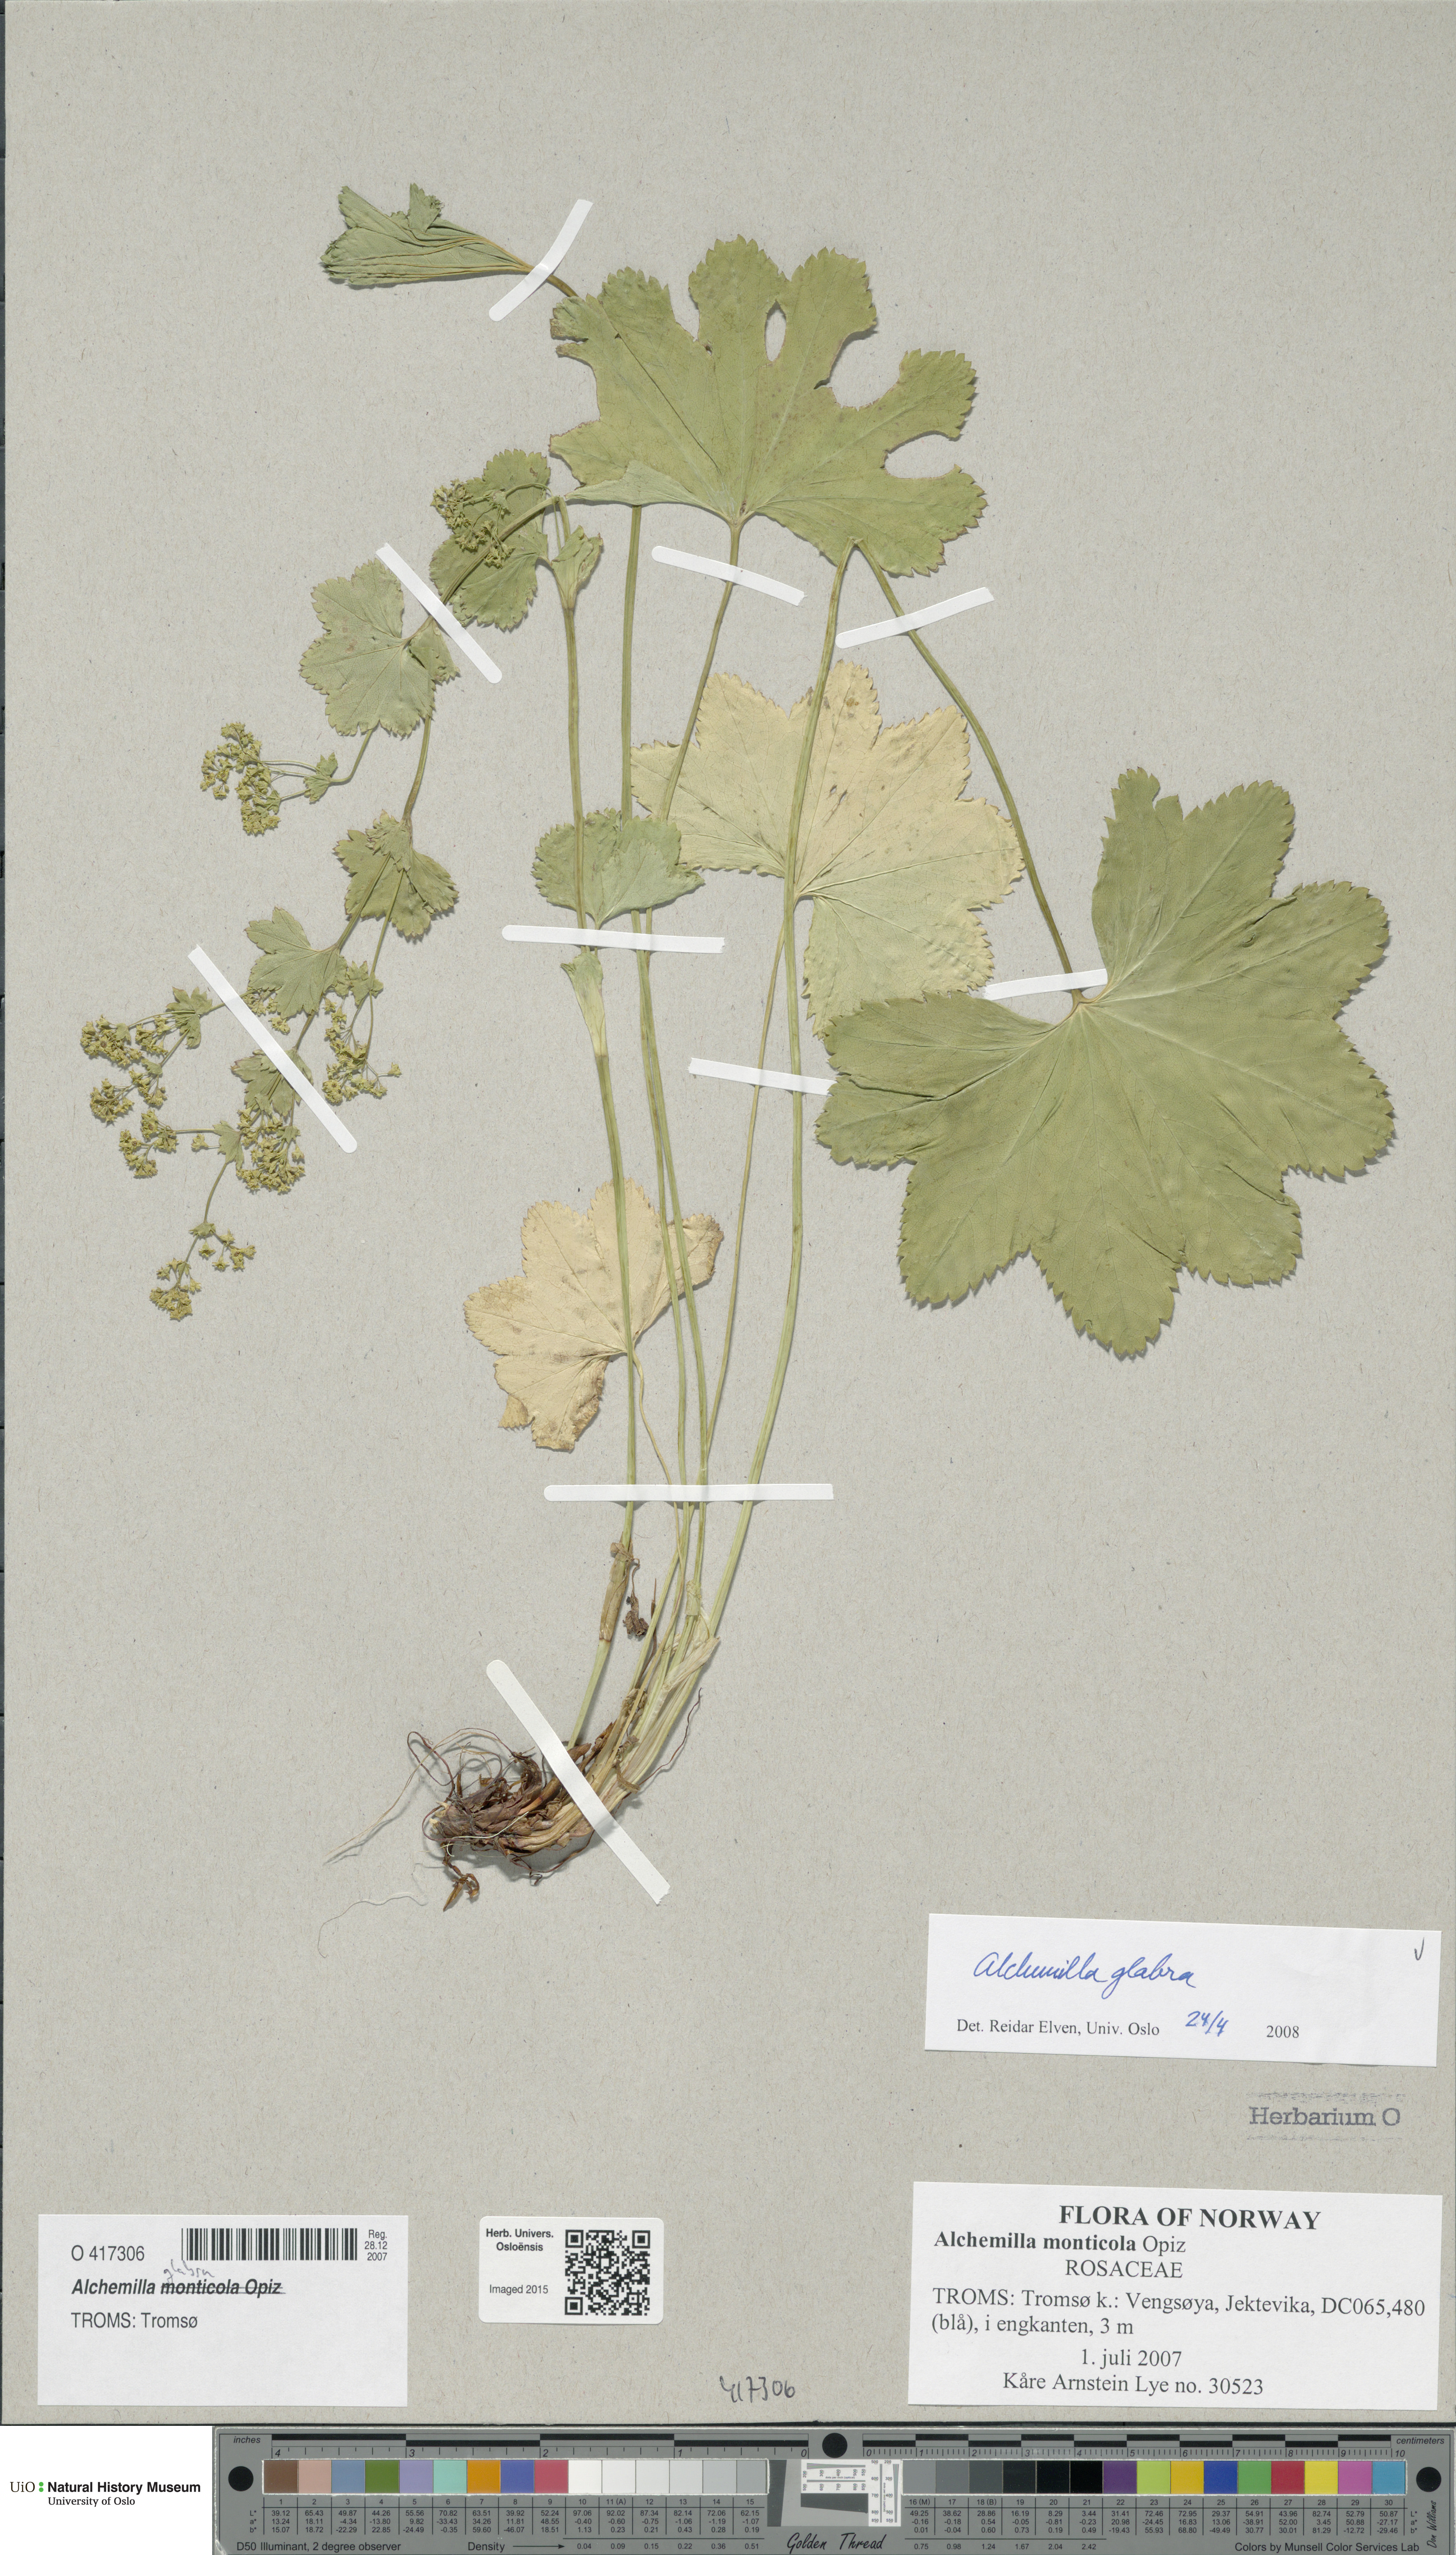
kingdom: Plantae
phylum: Tracheophyta
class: Magnoliopsida
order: Rosales
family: Rosaceae
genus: Alchemilla
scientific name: Alchemilla glabra
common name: Smooth lady's-mantle
